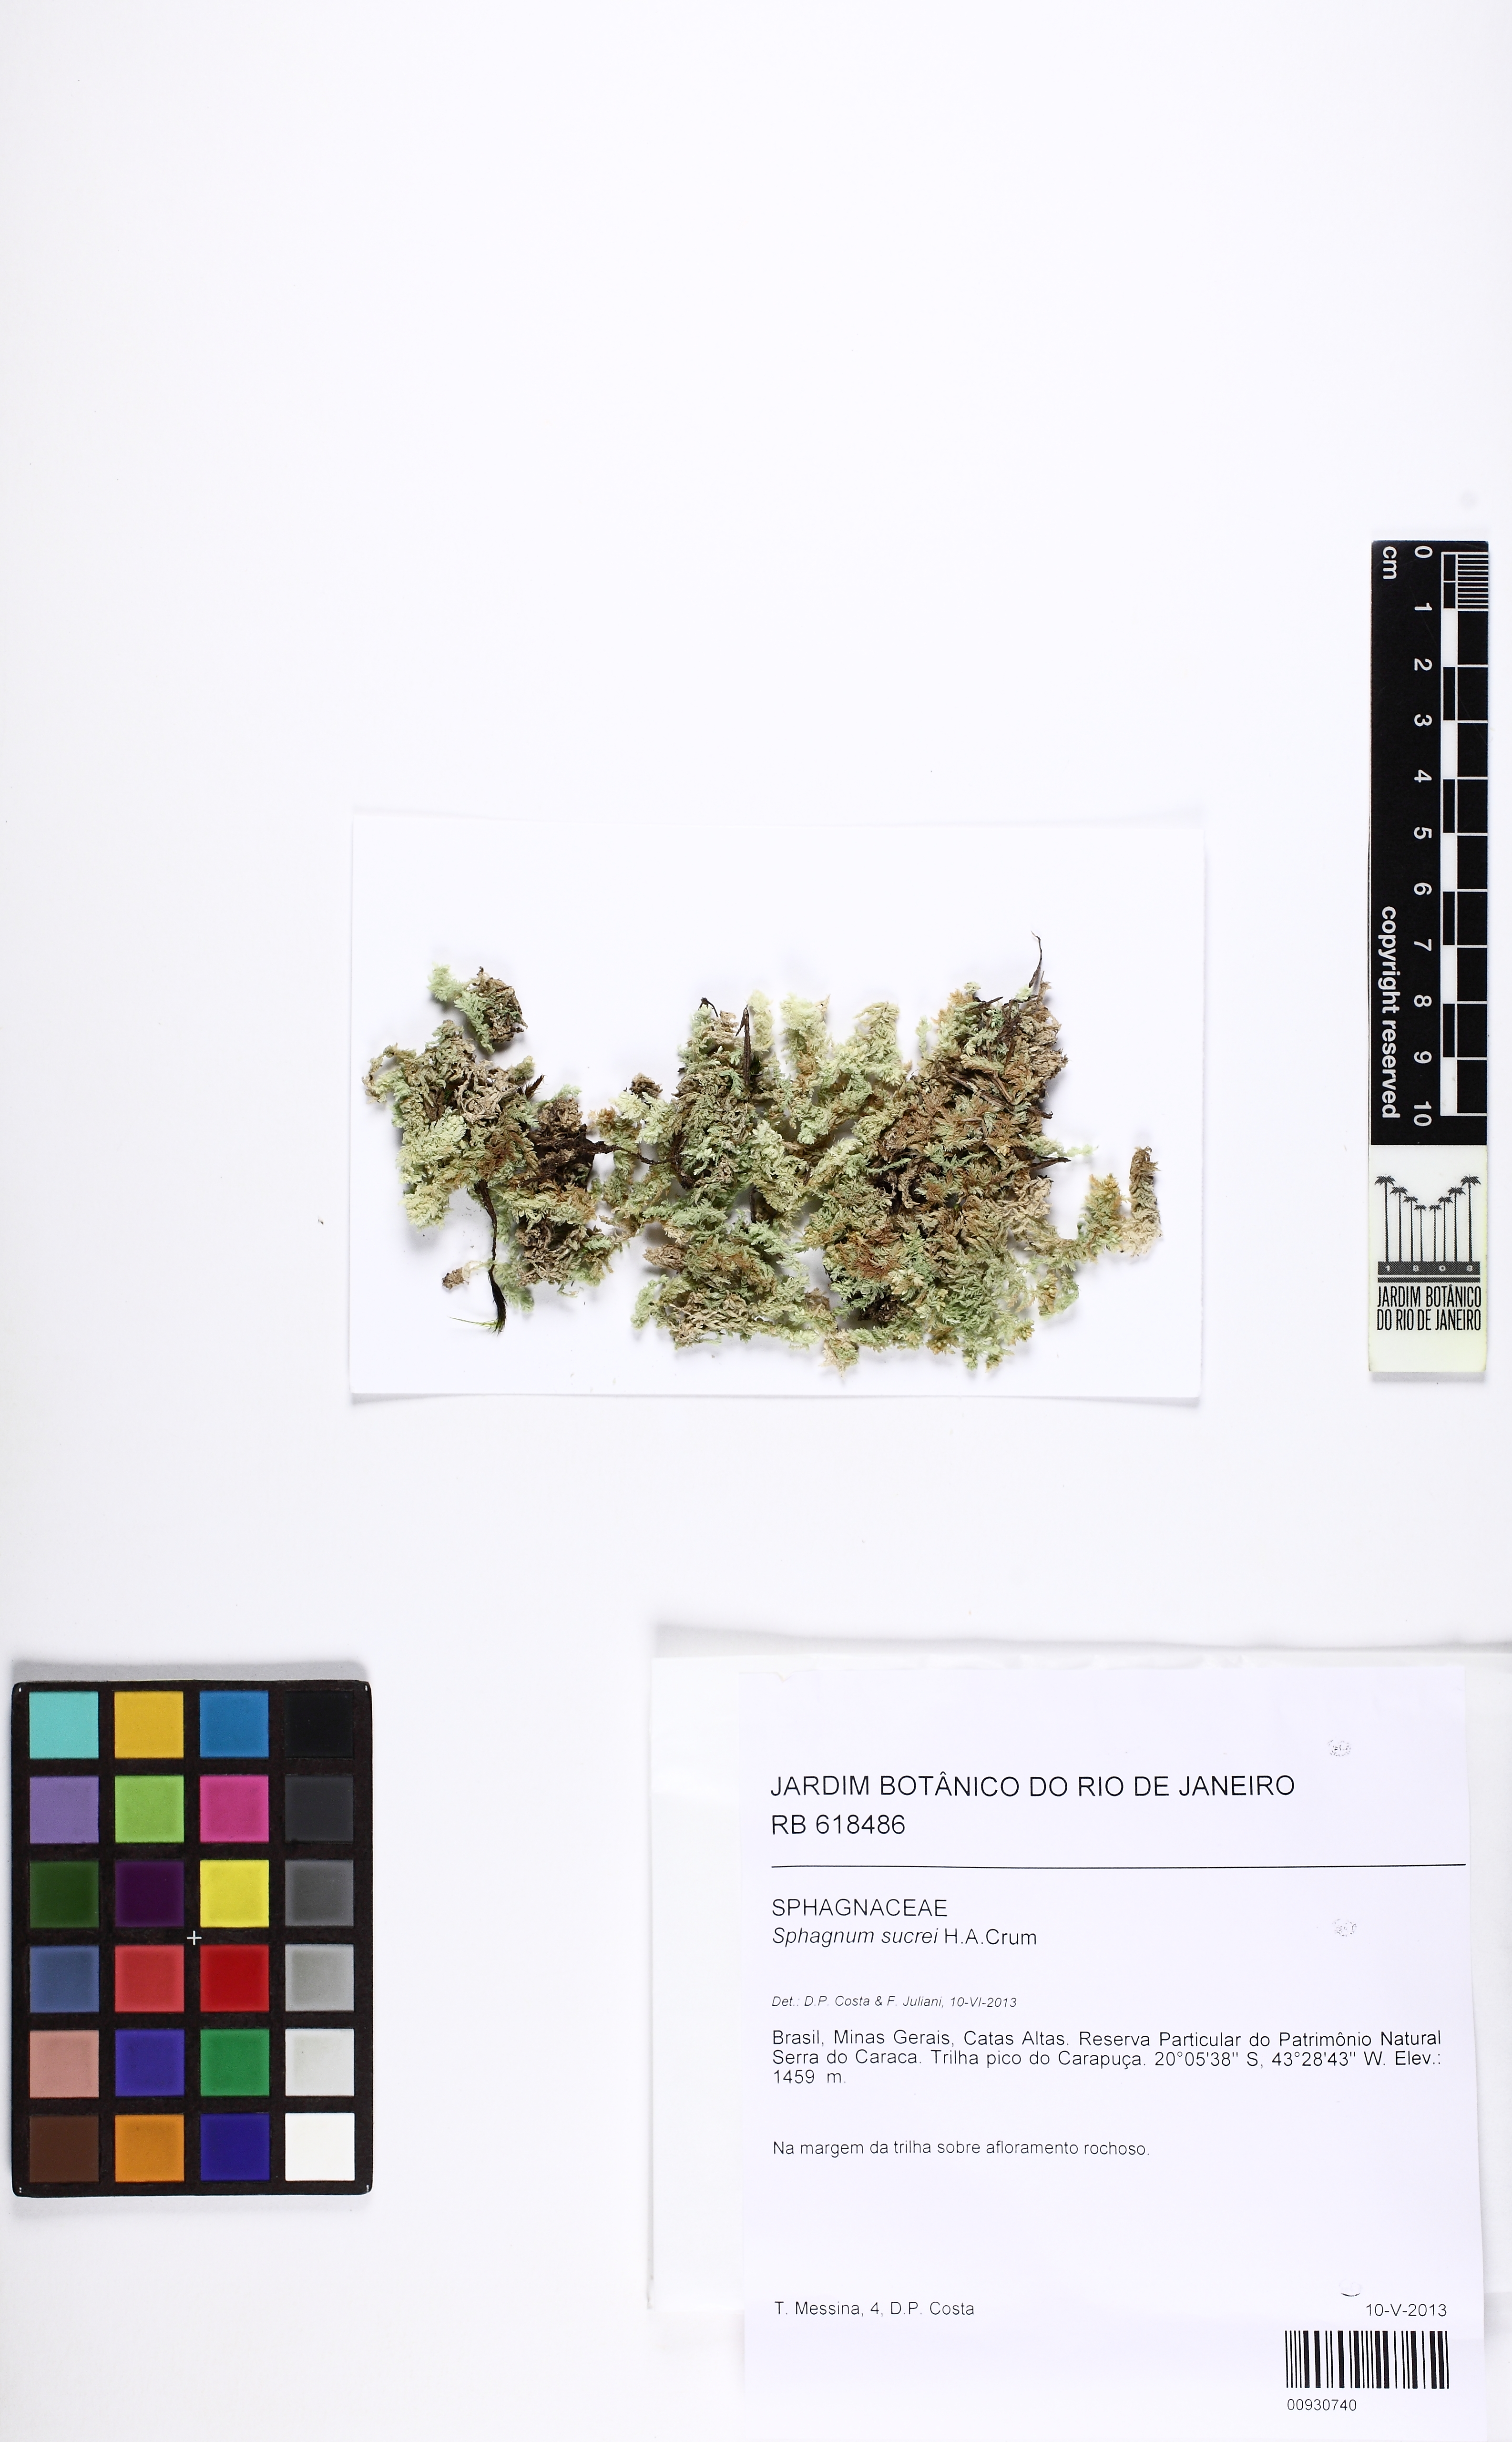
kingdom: Plantae
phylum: Bryophyta
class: Sphagnopsida
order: Sphagnales
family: Sphagnaceae
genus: Sphagnum
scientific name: Sphagnum sucrei
